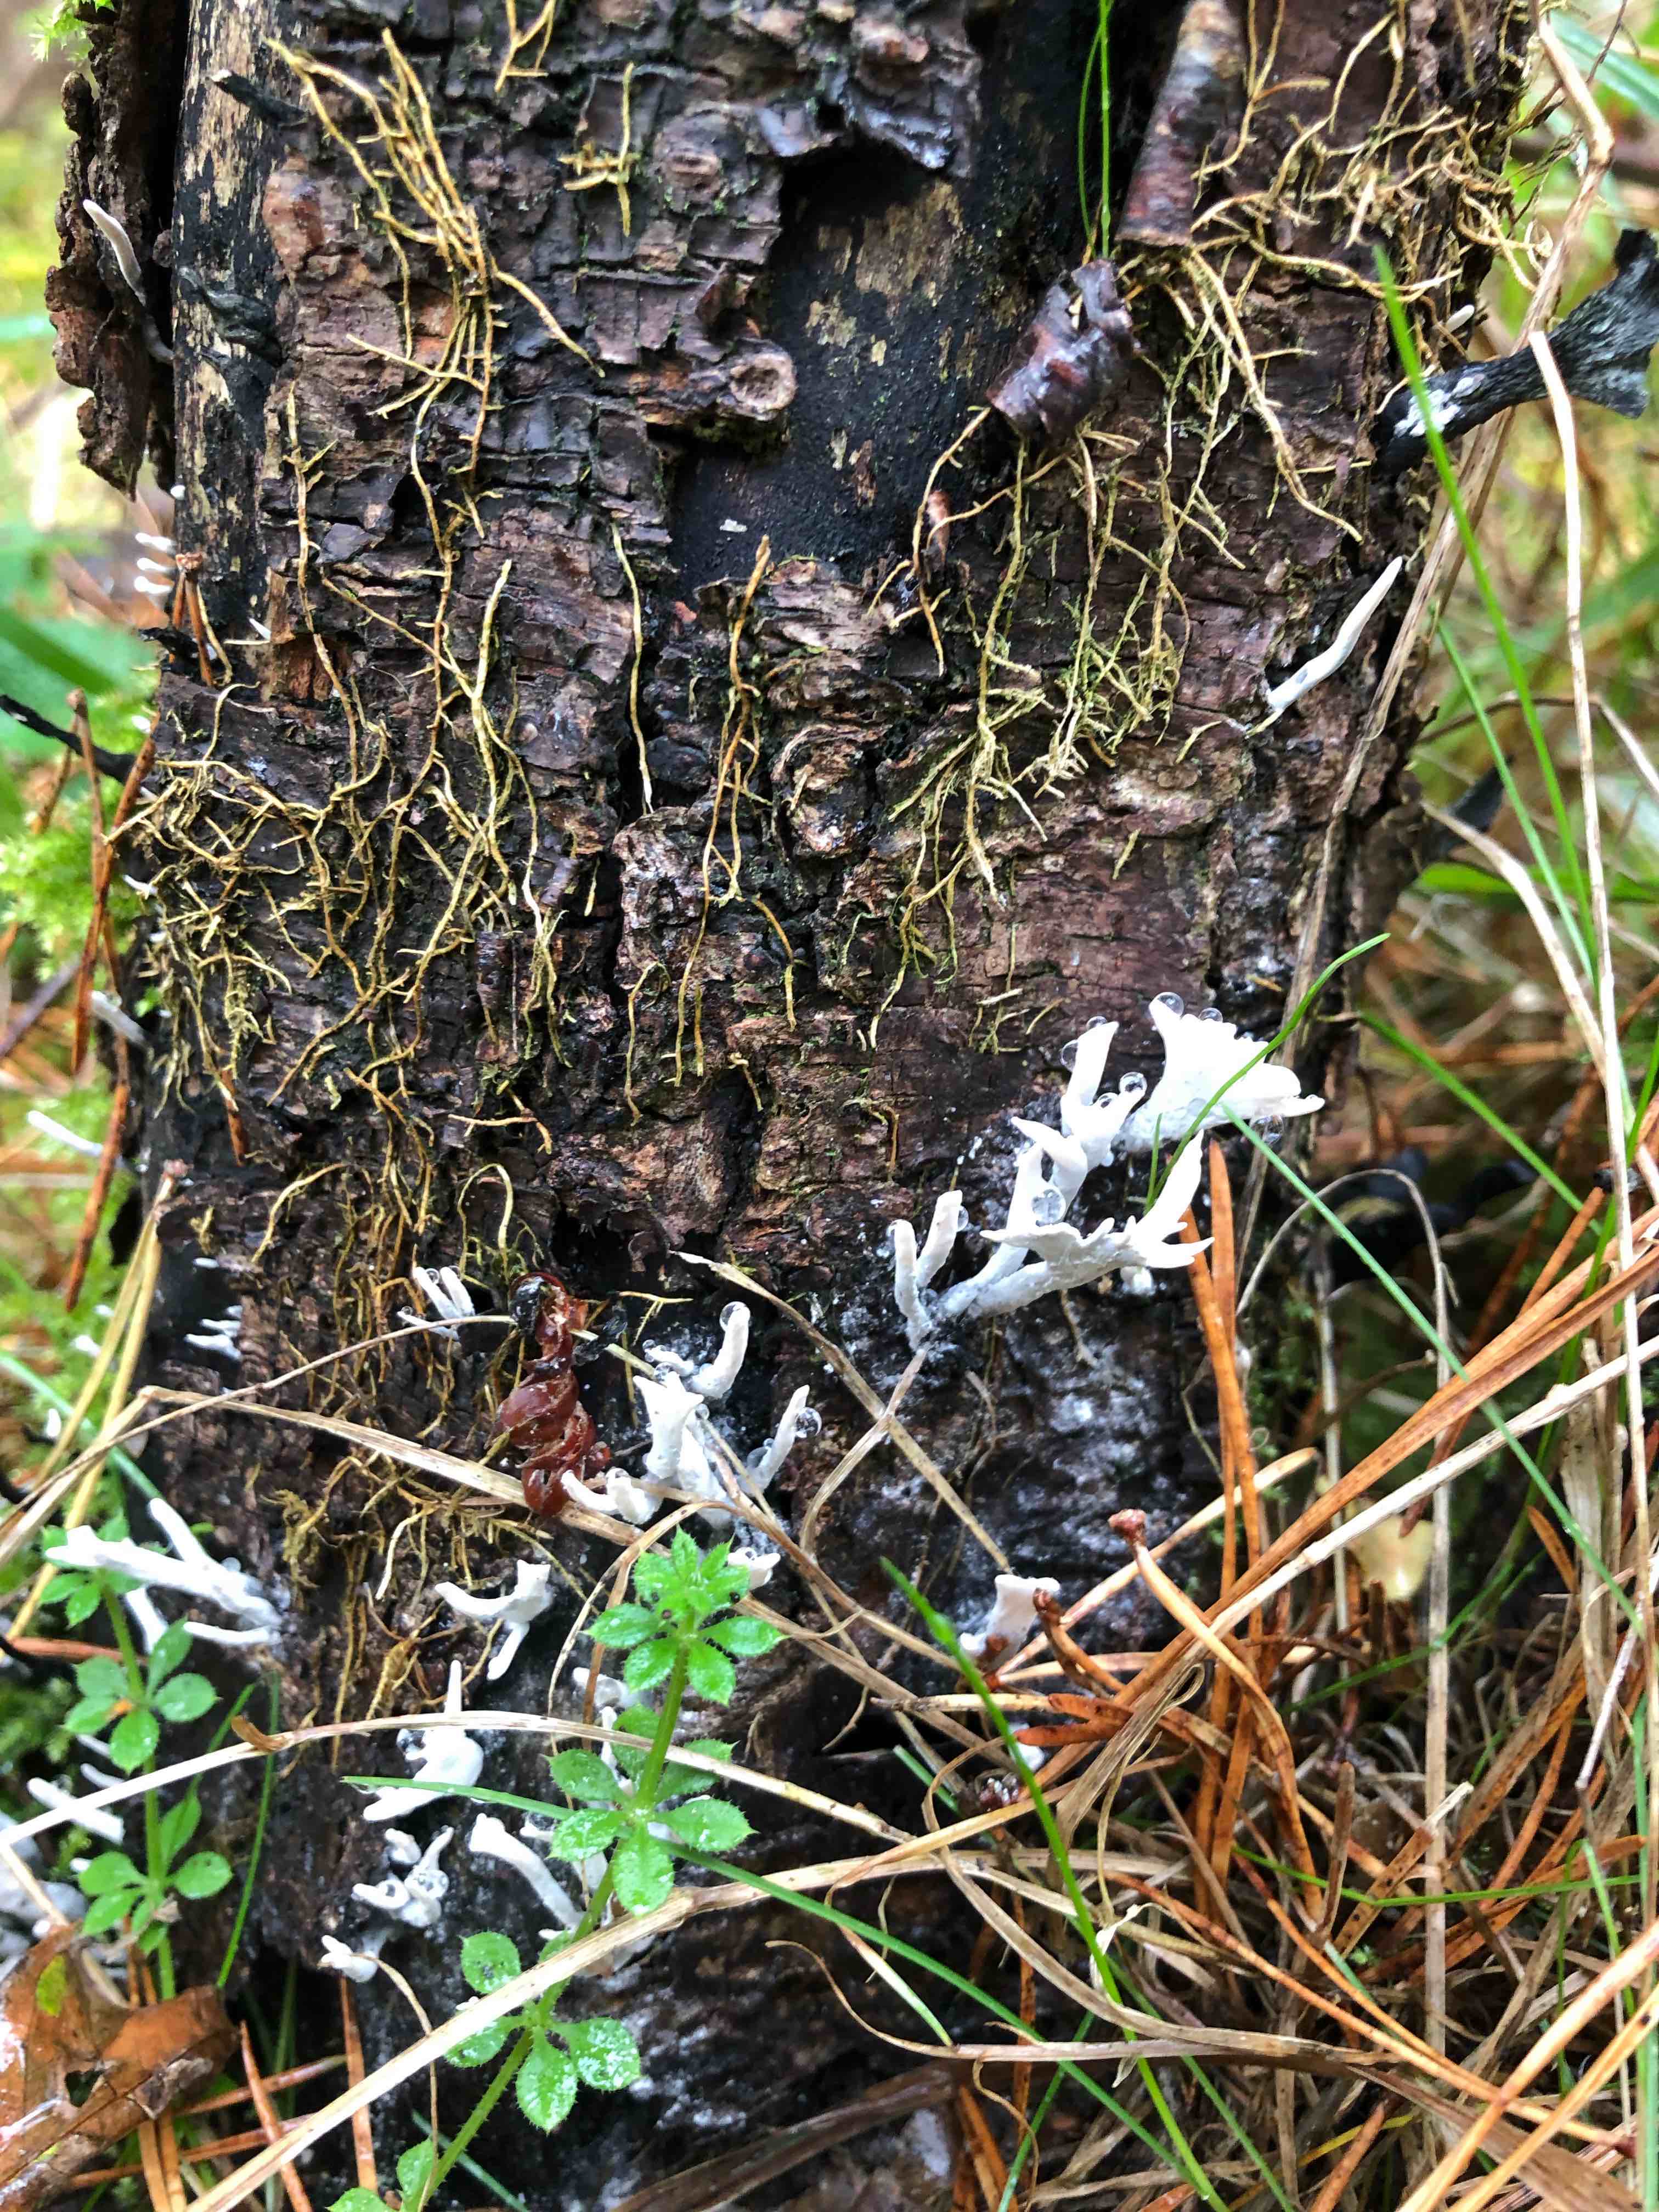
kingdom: Fungi
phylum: Ascomycota
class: Sordariomycetes
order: Xylariales
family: Xylariaceae
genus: Xylaria
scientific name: Xylaria hypoxylon
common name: grenet stødsvamp
